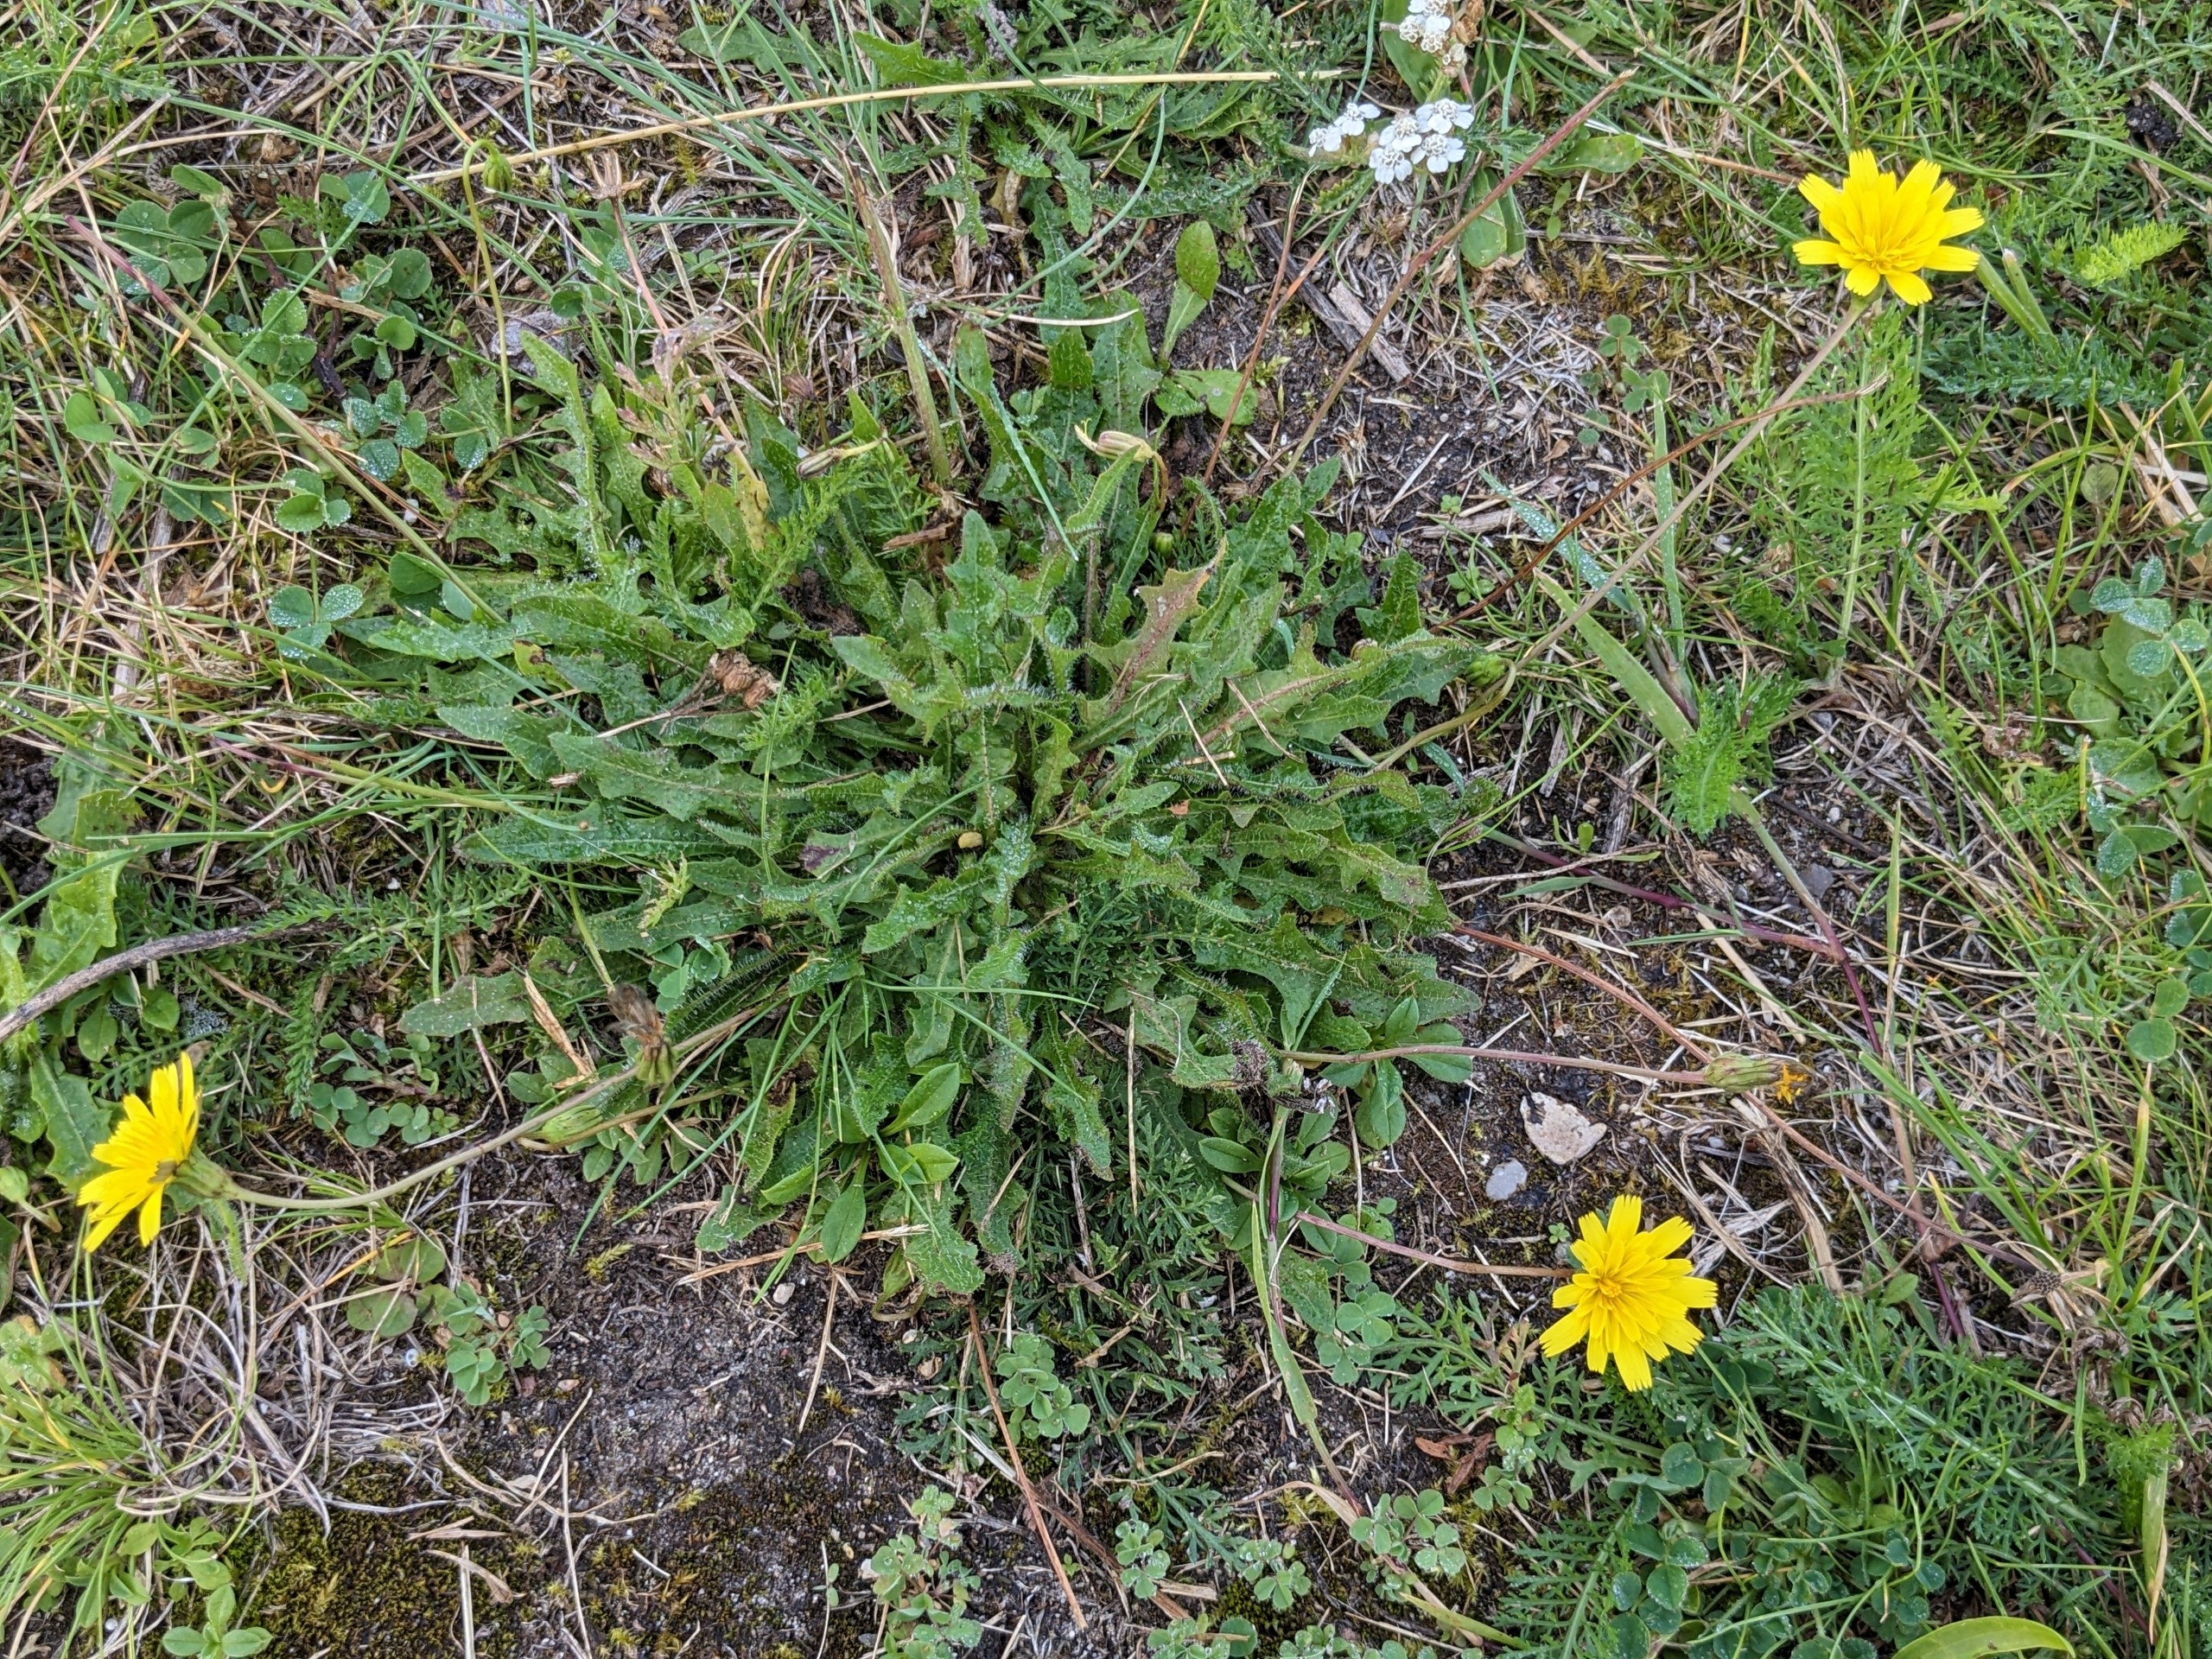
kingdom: Plantae
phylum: Tracheophyta
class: Magnoliopsida
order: Asterales
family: Asteraceae
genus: Thrincia
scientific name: Thrincia saxatilis
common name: Hundesalat
